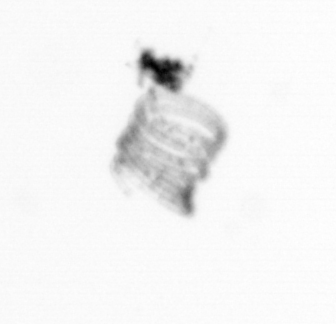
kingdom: Chromista
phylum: Ochrophyta
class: Bacillariophyceae
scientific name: Bacillariophyceae
